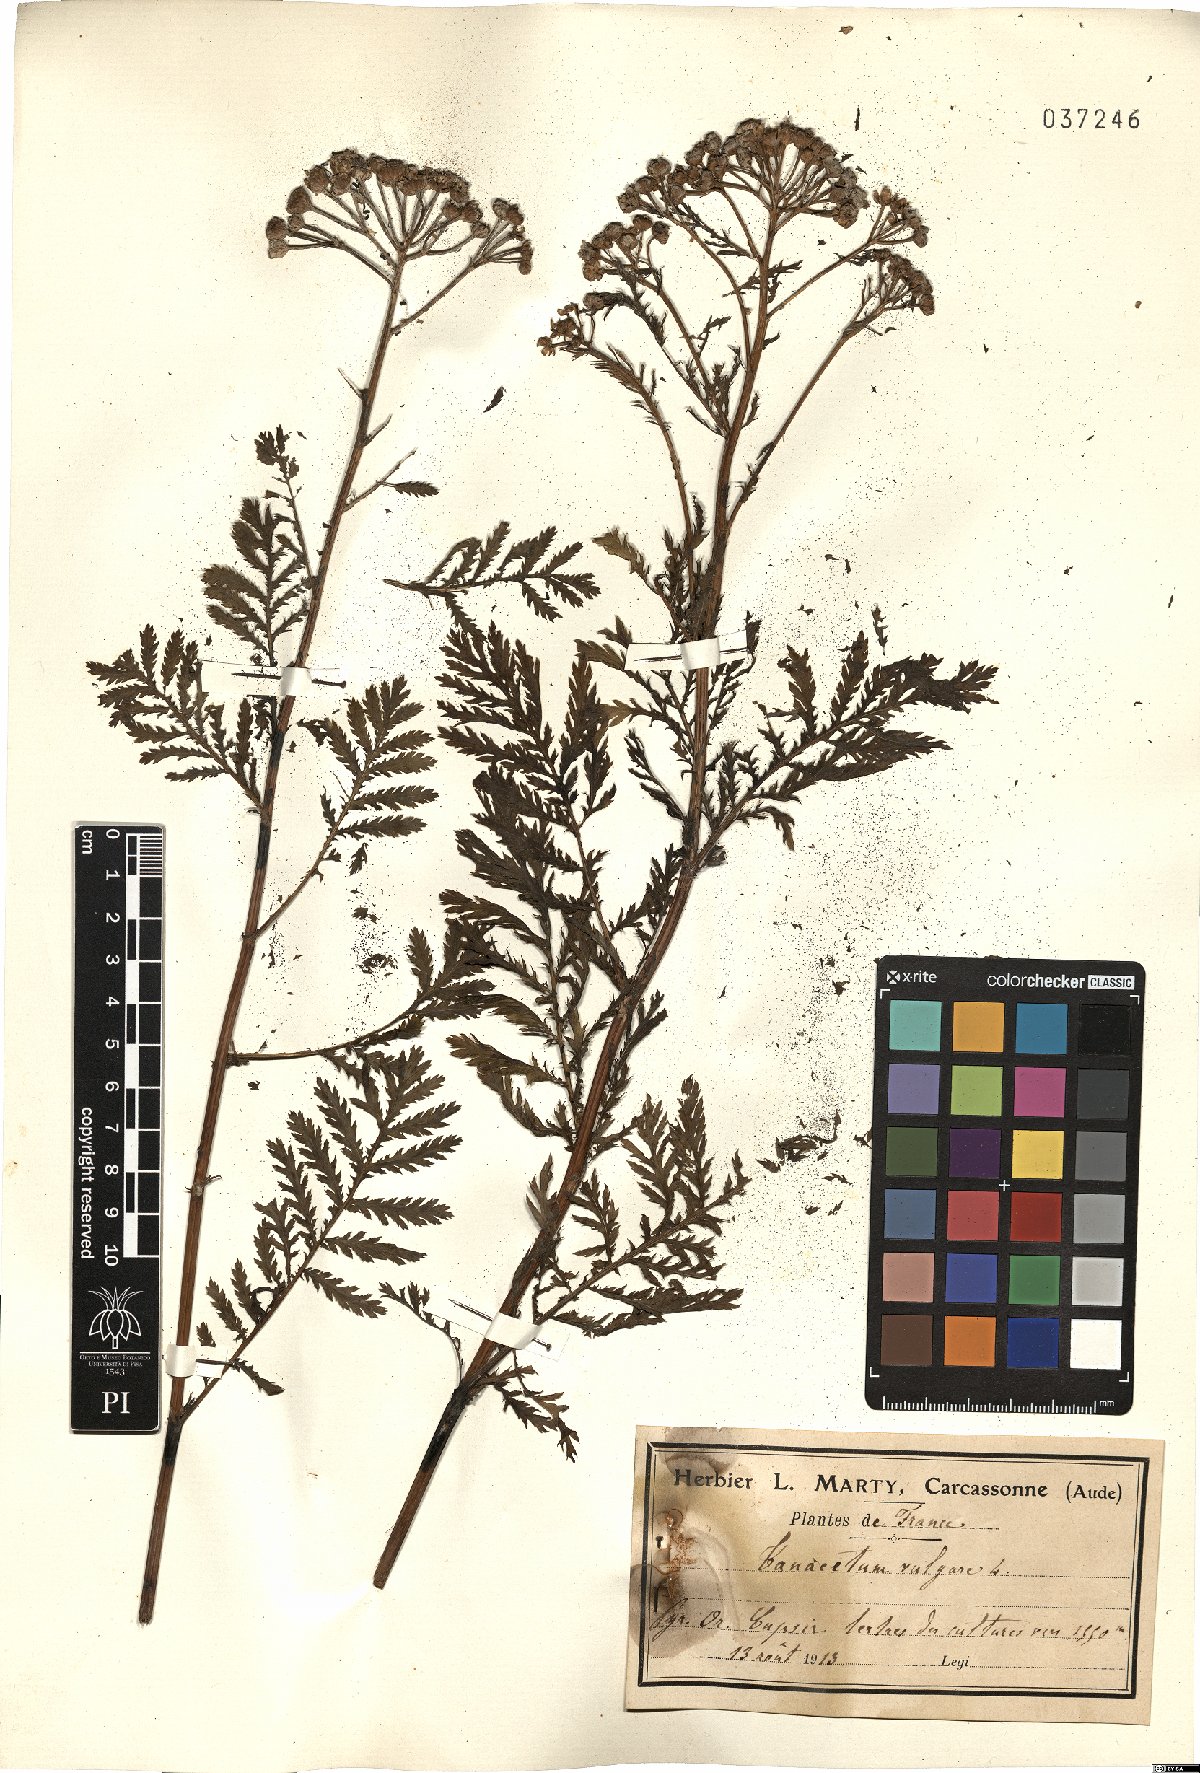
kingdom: Plantae
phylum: Tracheophyta
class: Magnoliopsida
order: Asterales
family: Asteraceae
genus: Tanacetum
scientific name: Tanacetum vulgare
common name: Common tansy
